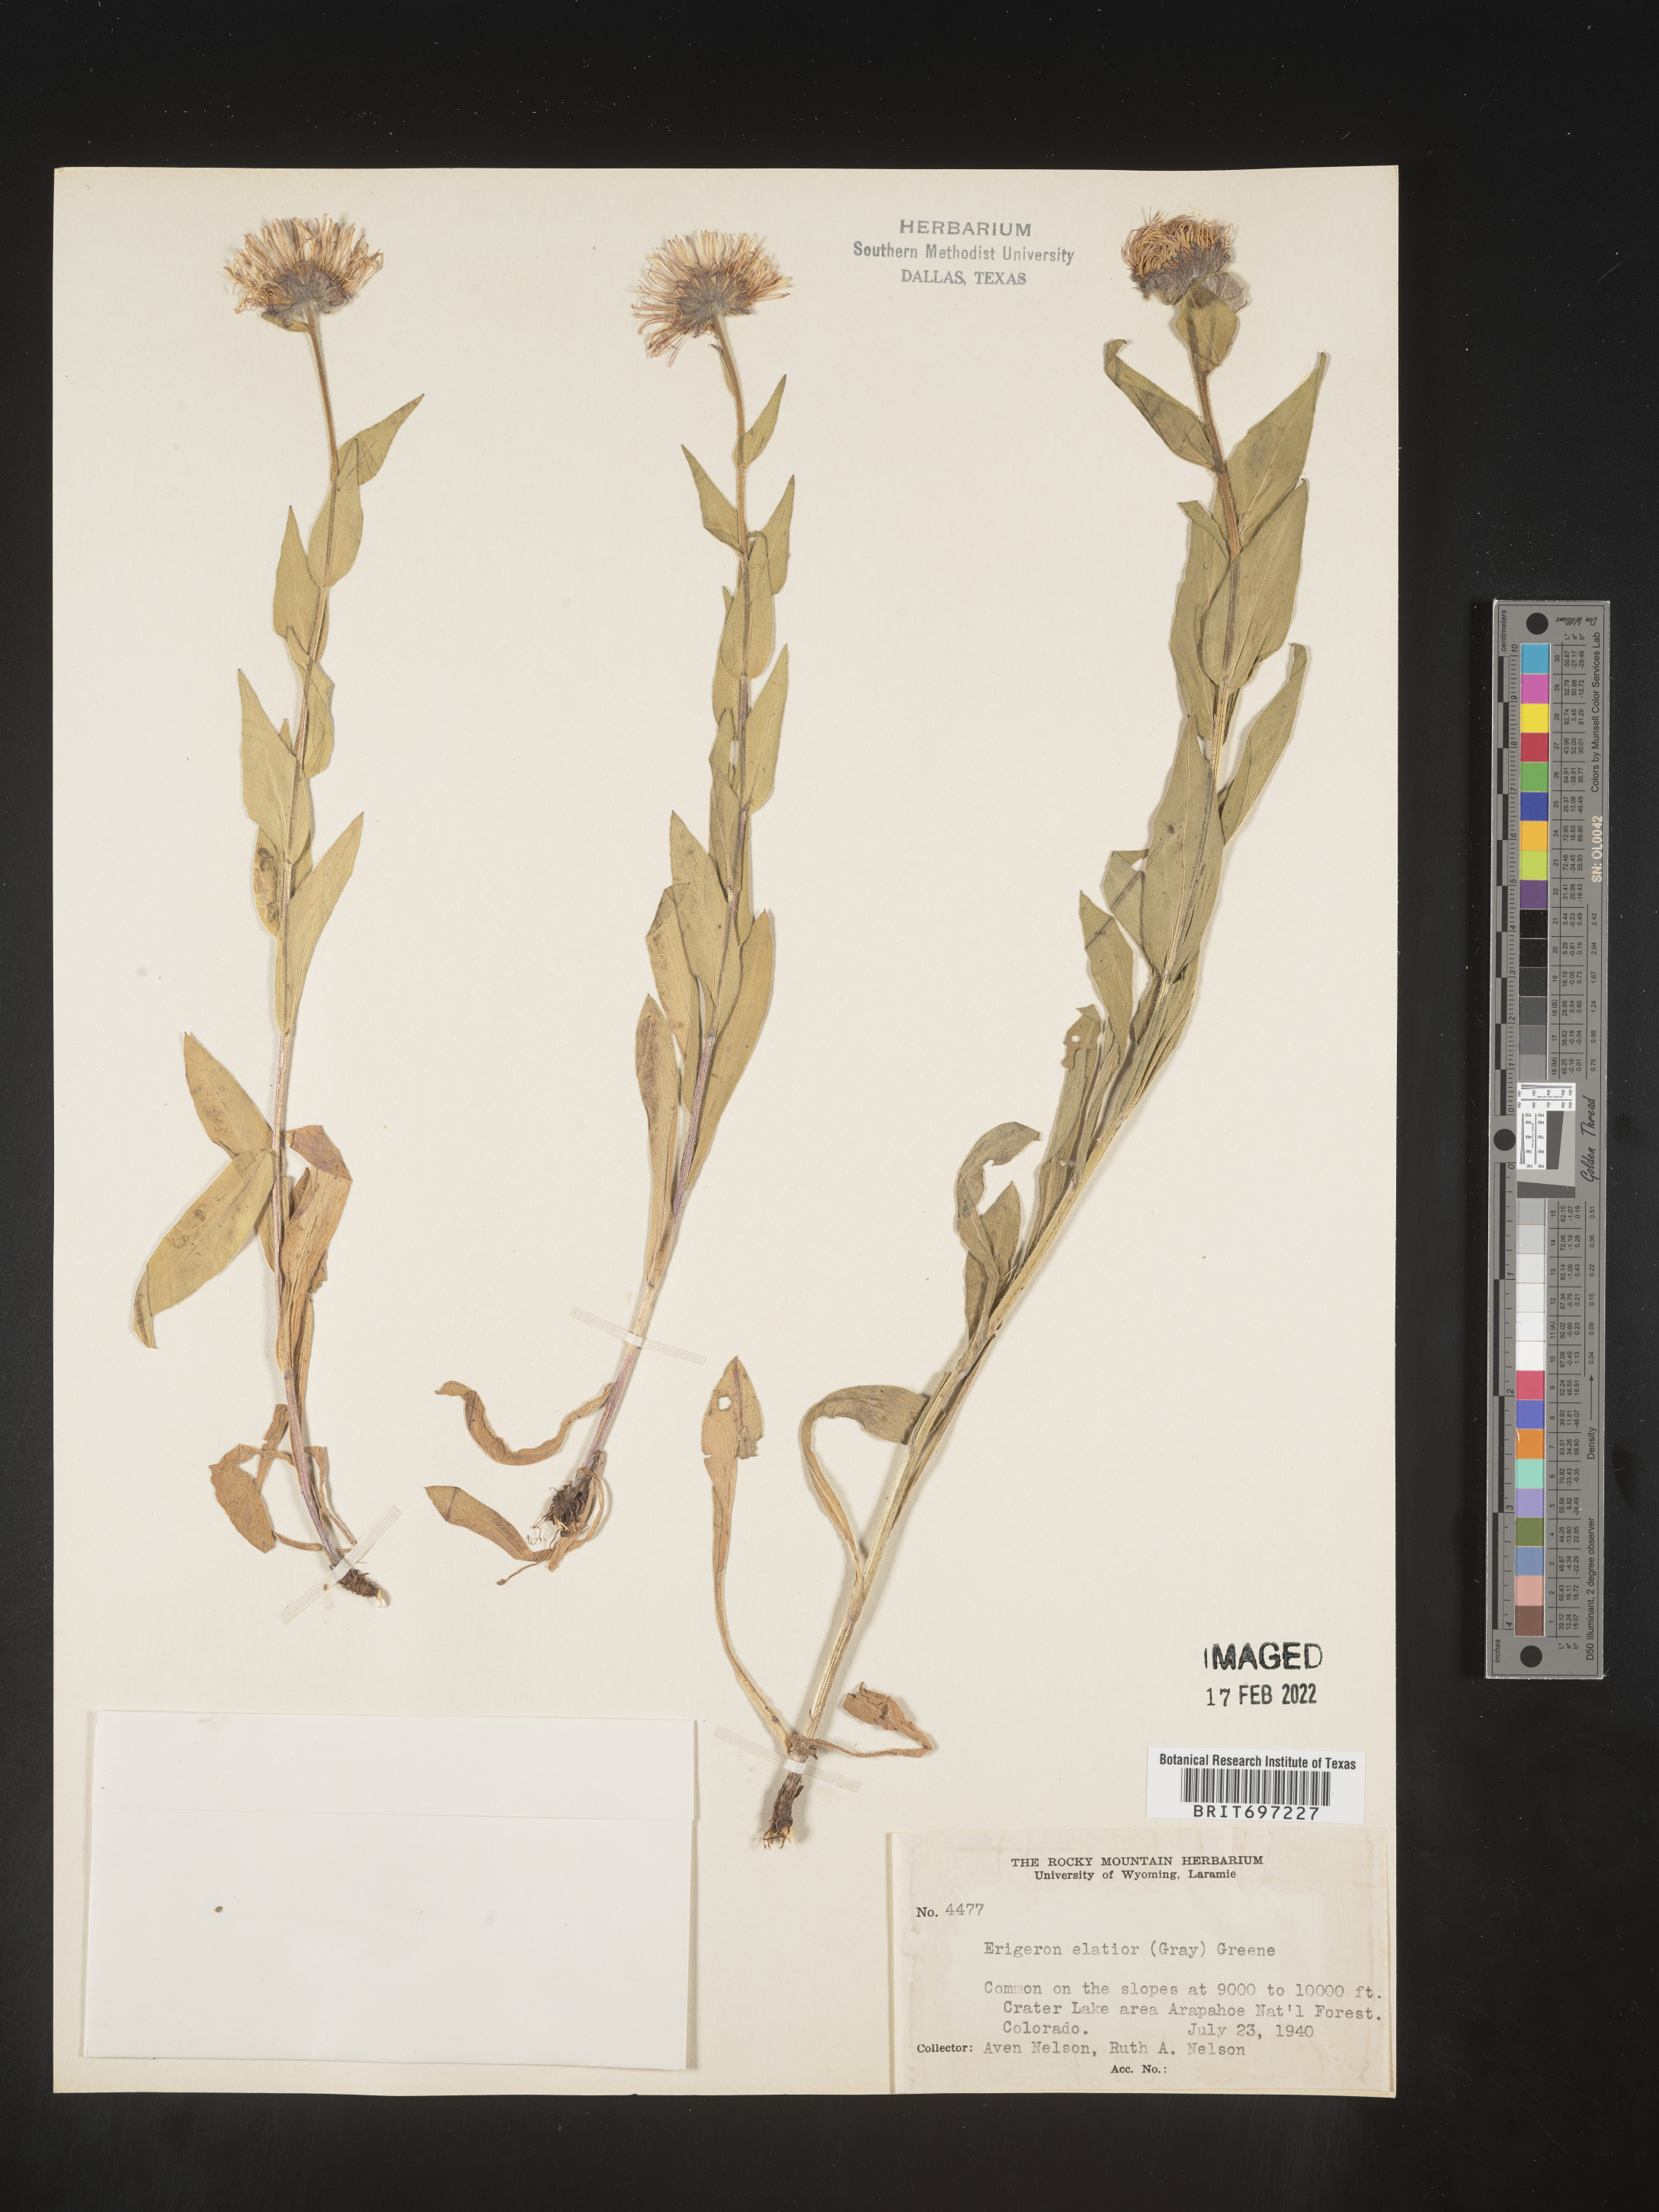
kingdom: Plantae
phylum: Tracheophyta
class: Magnoliopsida
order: Asterales
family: Asteraceae
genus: Erigeron
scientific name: Erigeron elatior
